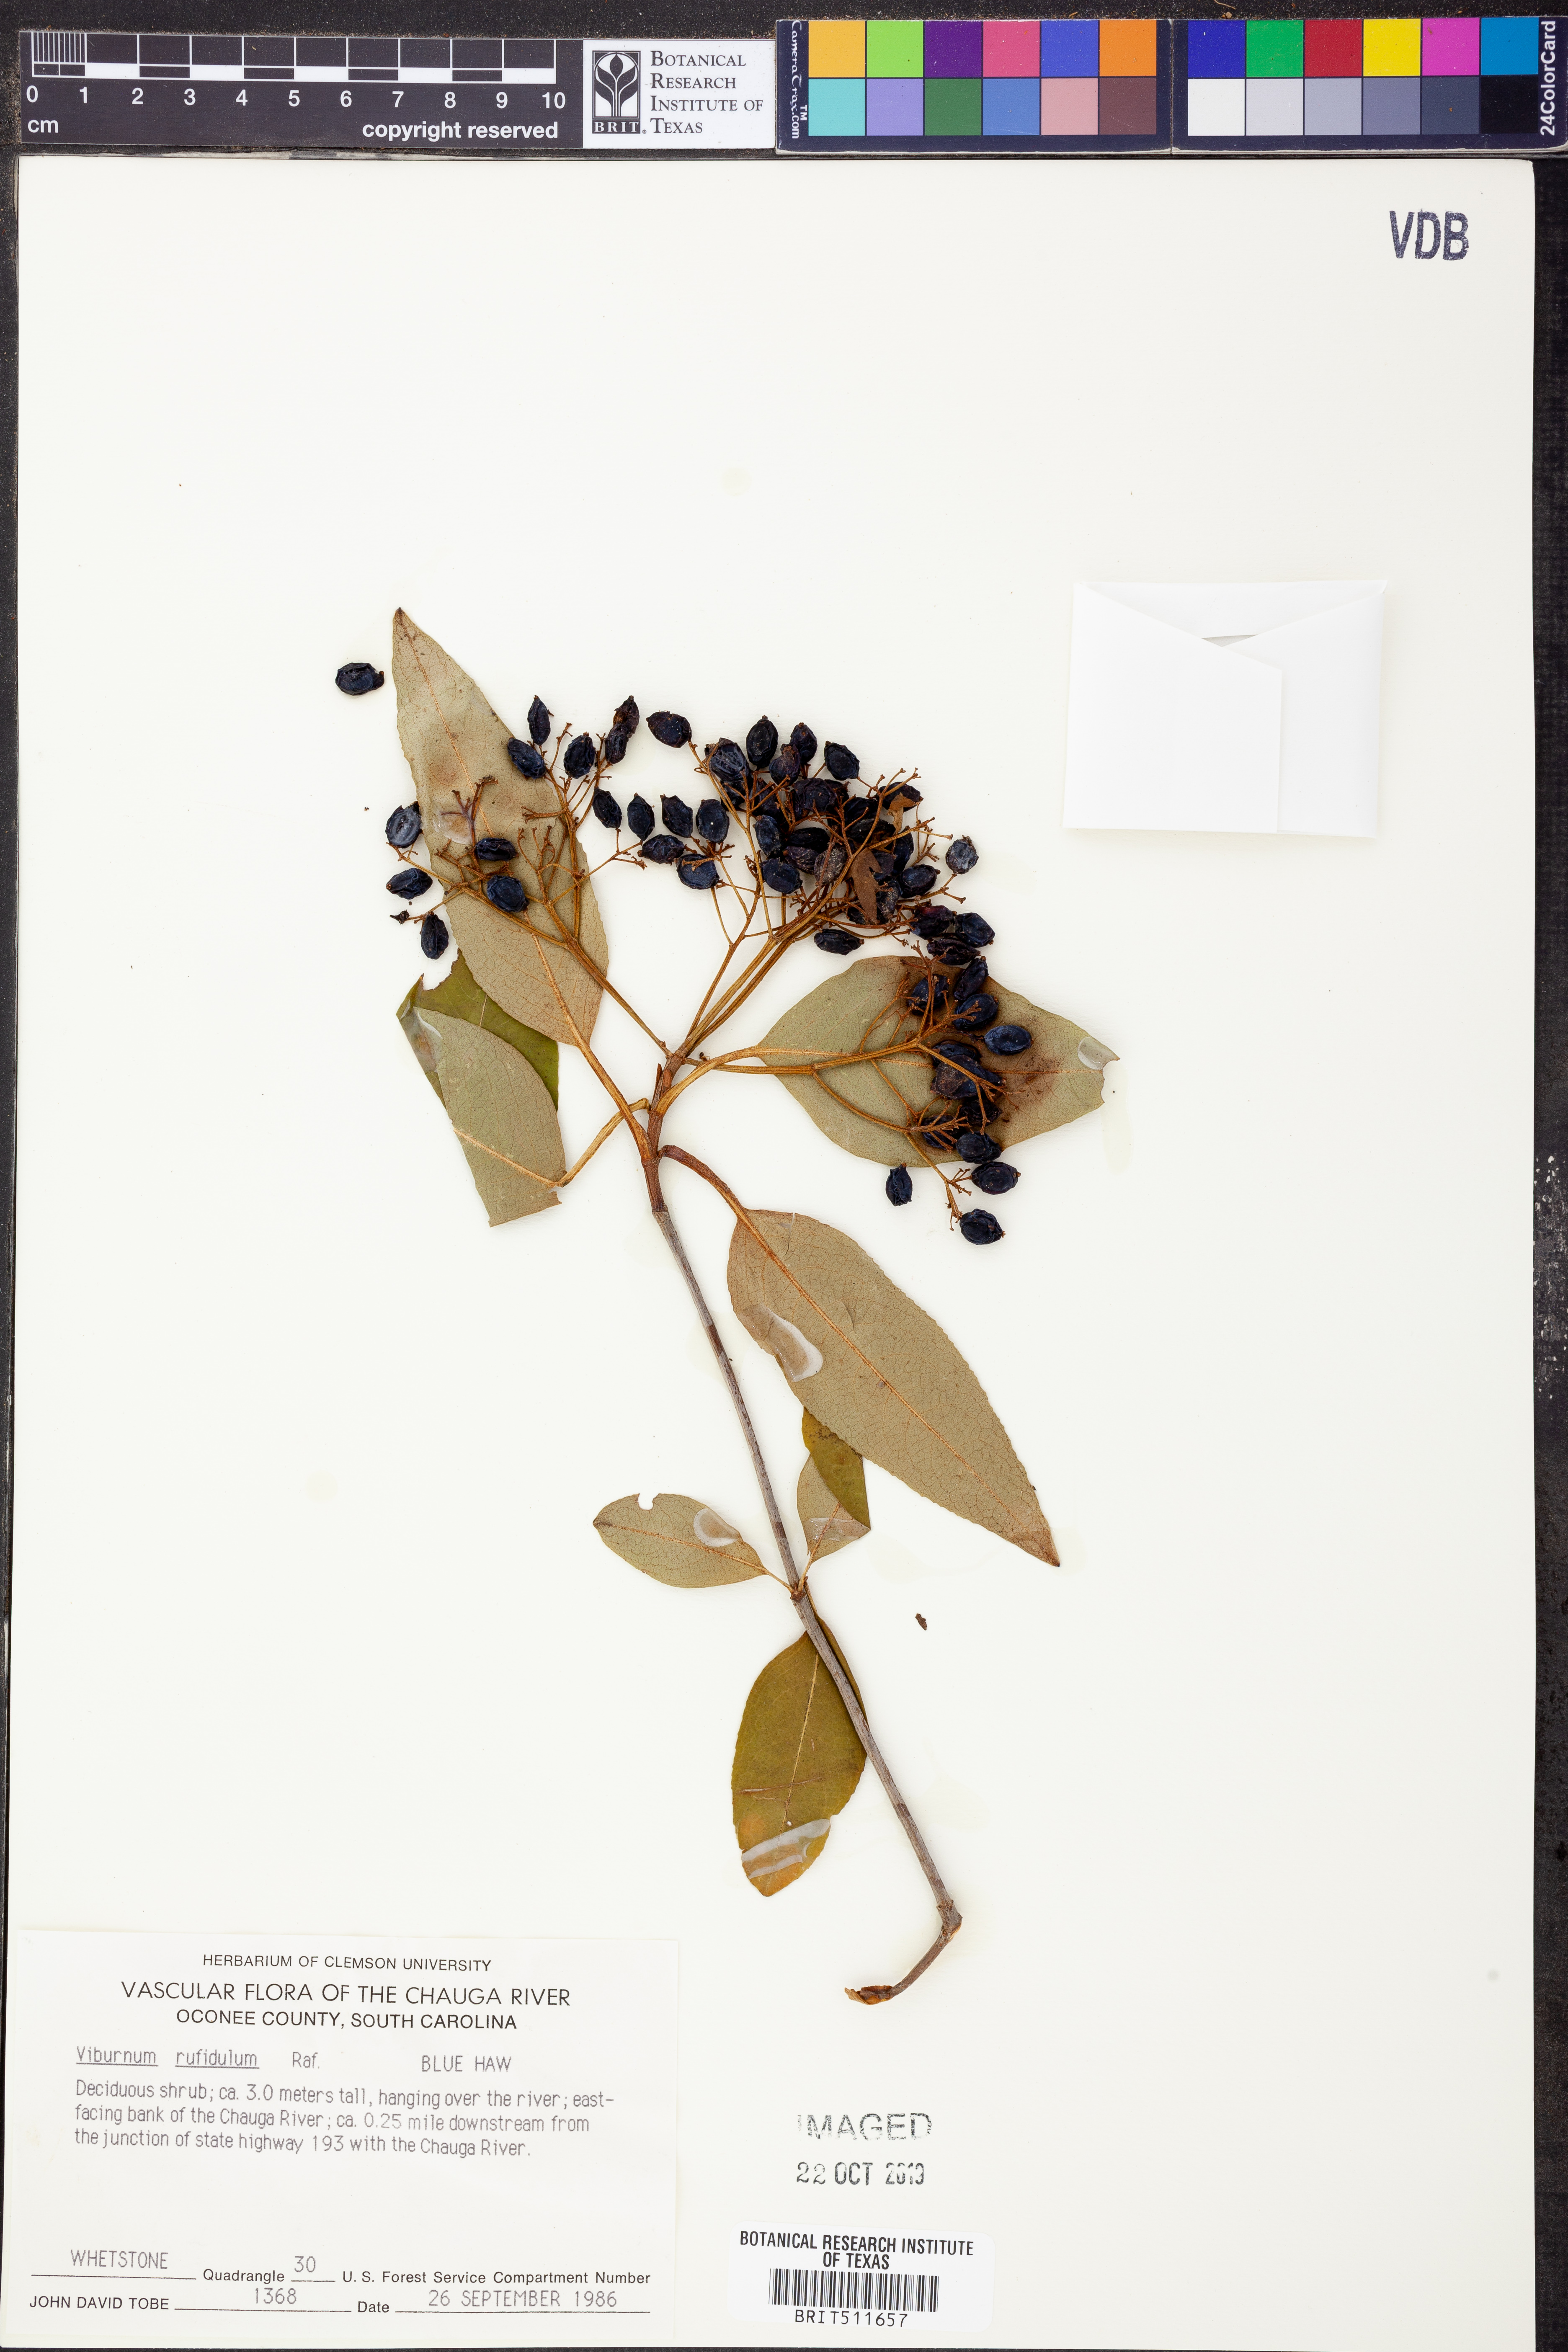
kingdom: Plantae
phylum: Tracheophyta
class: Magnoliopsida
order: Dipsacales
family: Viburnaceae
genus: Viburnum
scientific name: Viburnum rufidulum
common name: Blue haw
